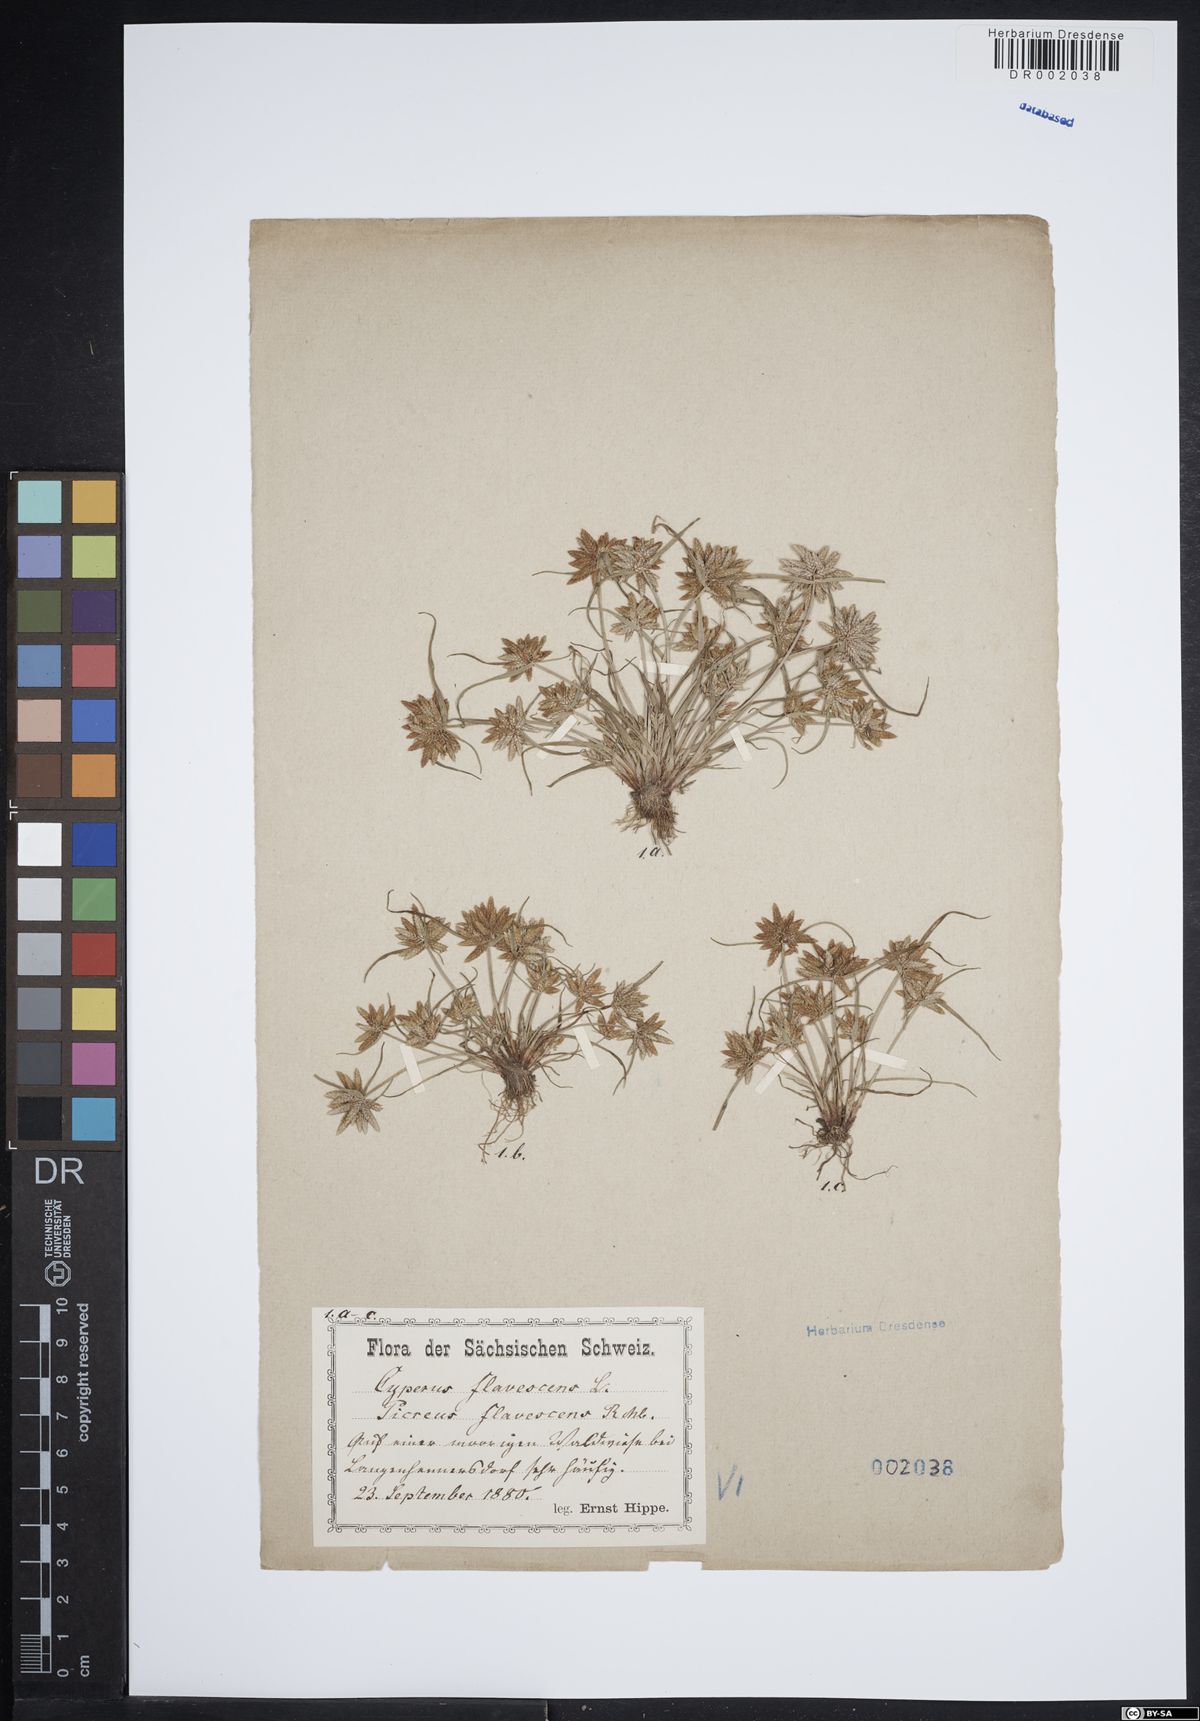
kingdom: Plantae
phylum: Tracheophyta
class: Liliopsida
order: Poales
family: Cyperaceae
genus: Cyperus
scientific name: Cyperus flavescens
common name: Yellow galingale
